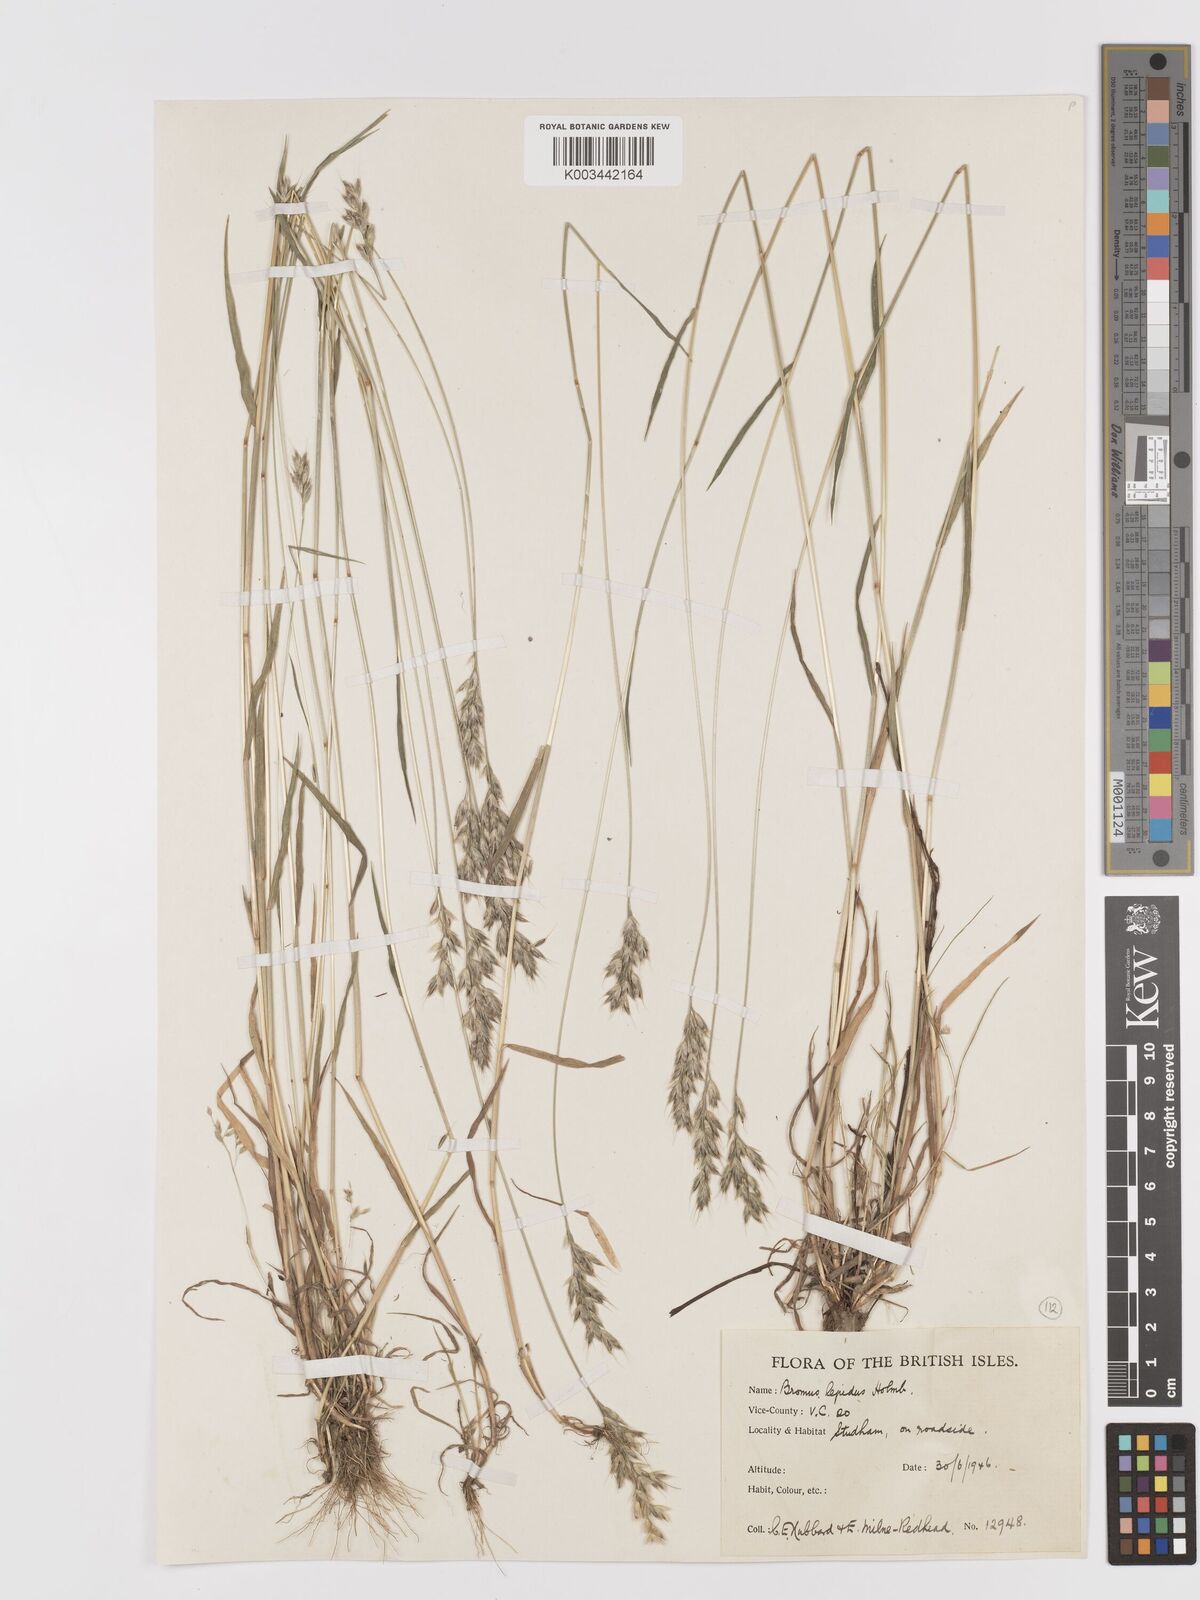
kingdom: Plantae
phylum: Tracheophyta
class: Liliopsida
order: Poales
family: Poaceae
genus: Bromus
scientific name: Bromus lepidus
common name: Slender soft-brome
